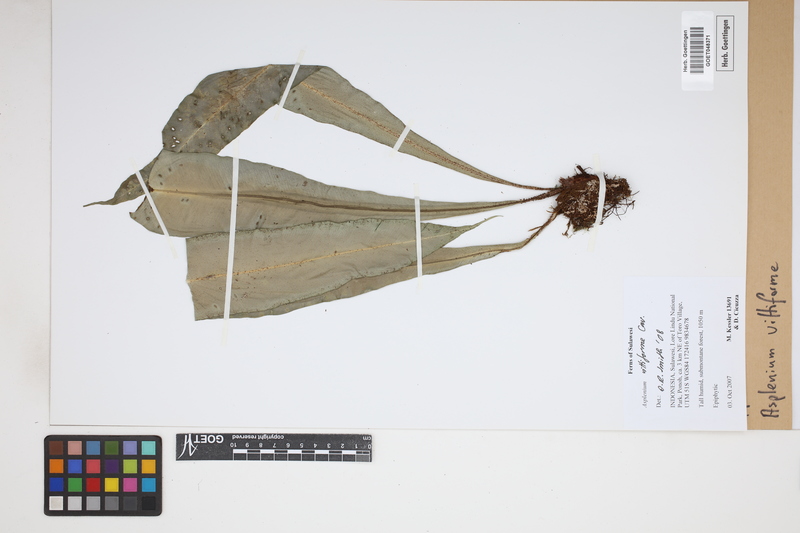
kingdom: Plantae
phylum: Tracheophyta
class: Polypodiopsida
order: Polypodiales
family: Aspleniaceae
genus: Asplenium
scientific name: Asplenium vittaeforme
